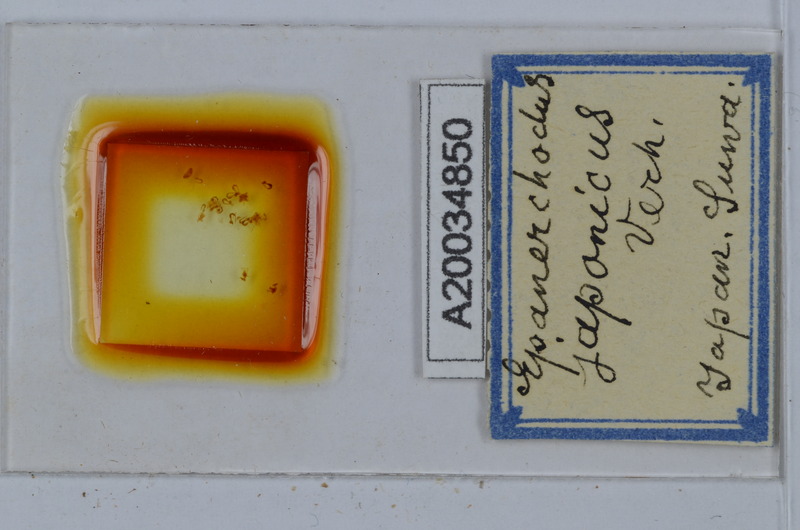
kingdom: Animalia
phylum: Arthropoda
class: Diplopoda
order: Polydesmida
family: Polydesmidae
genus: Epanerchodus
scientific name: Epanerchodus japonicus
